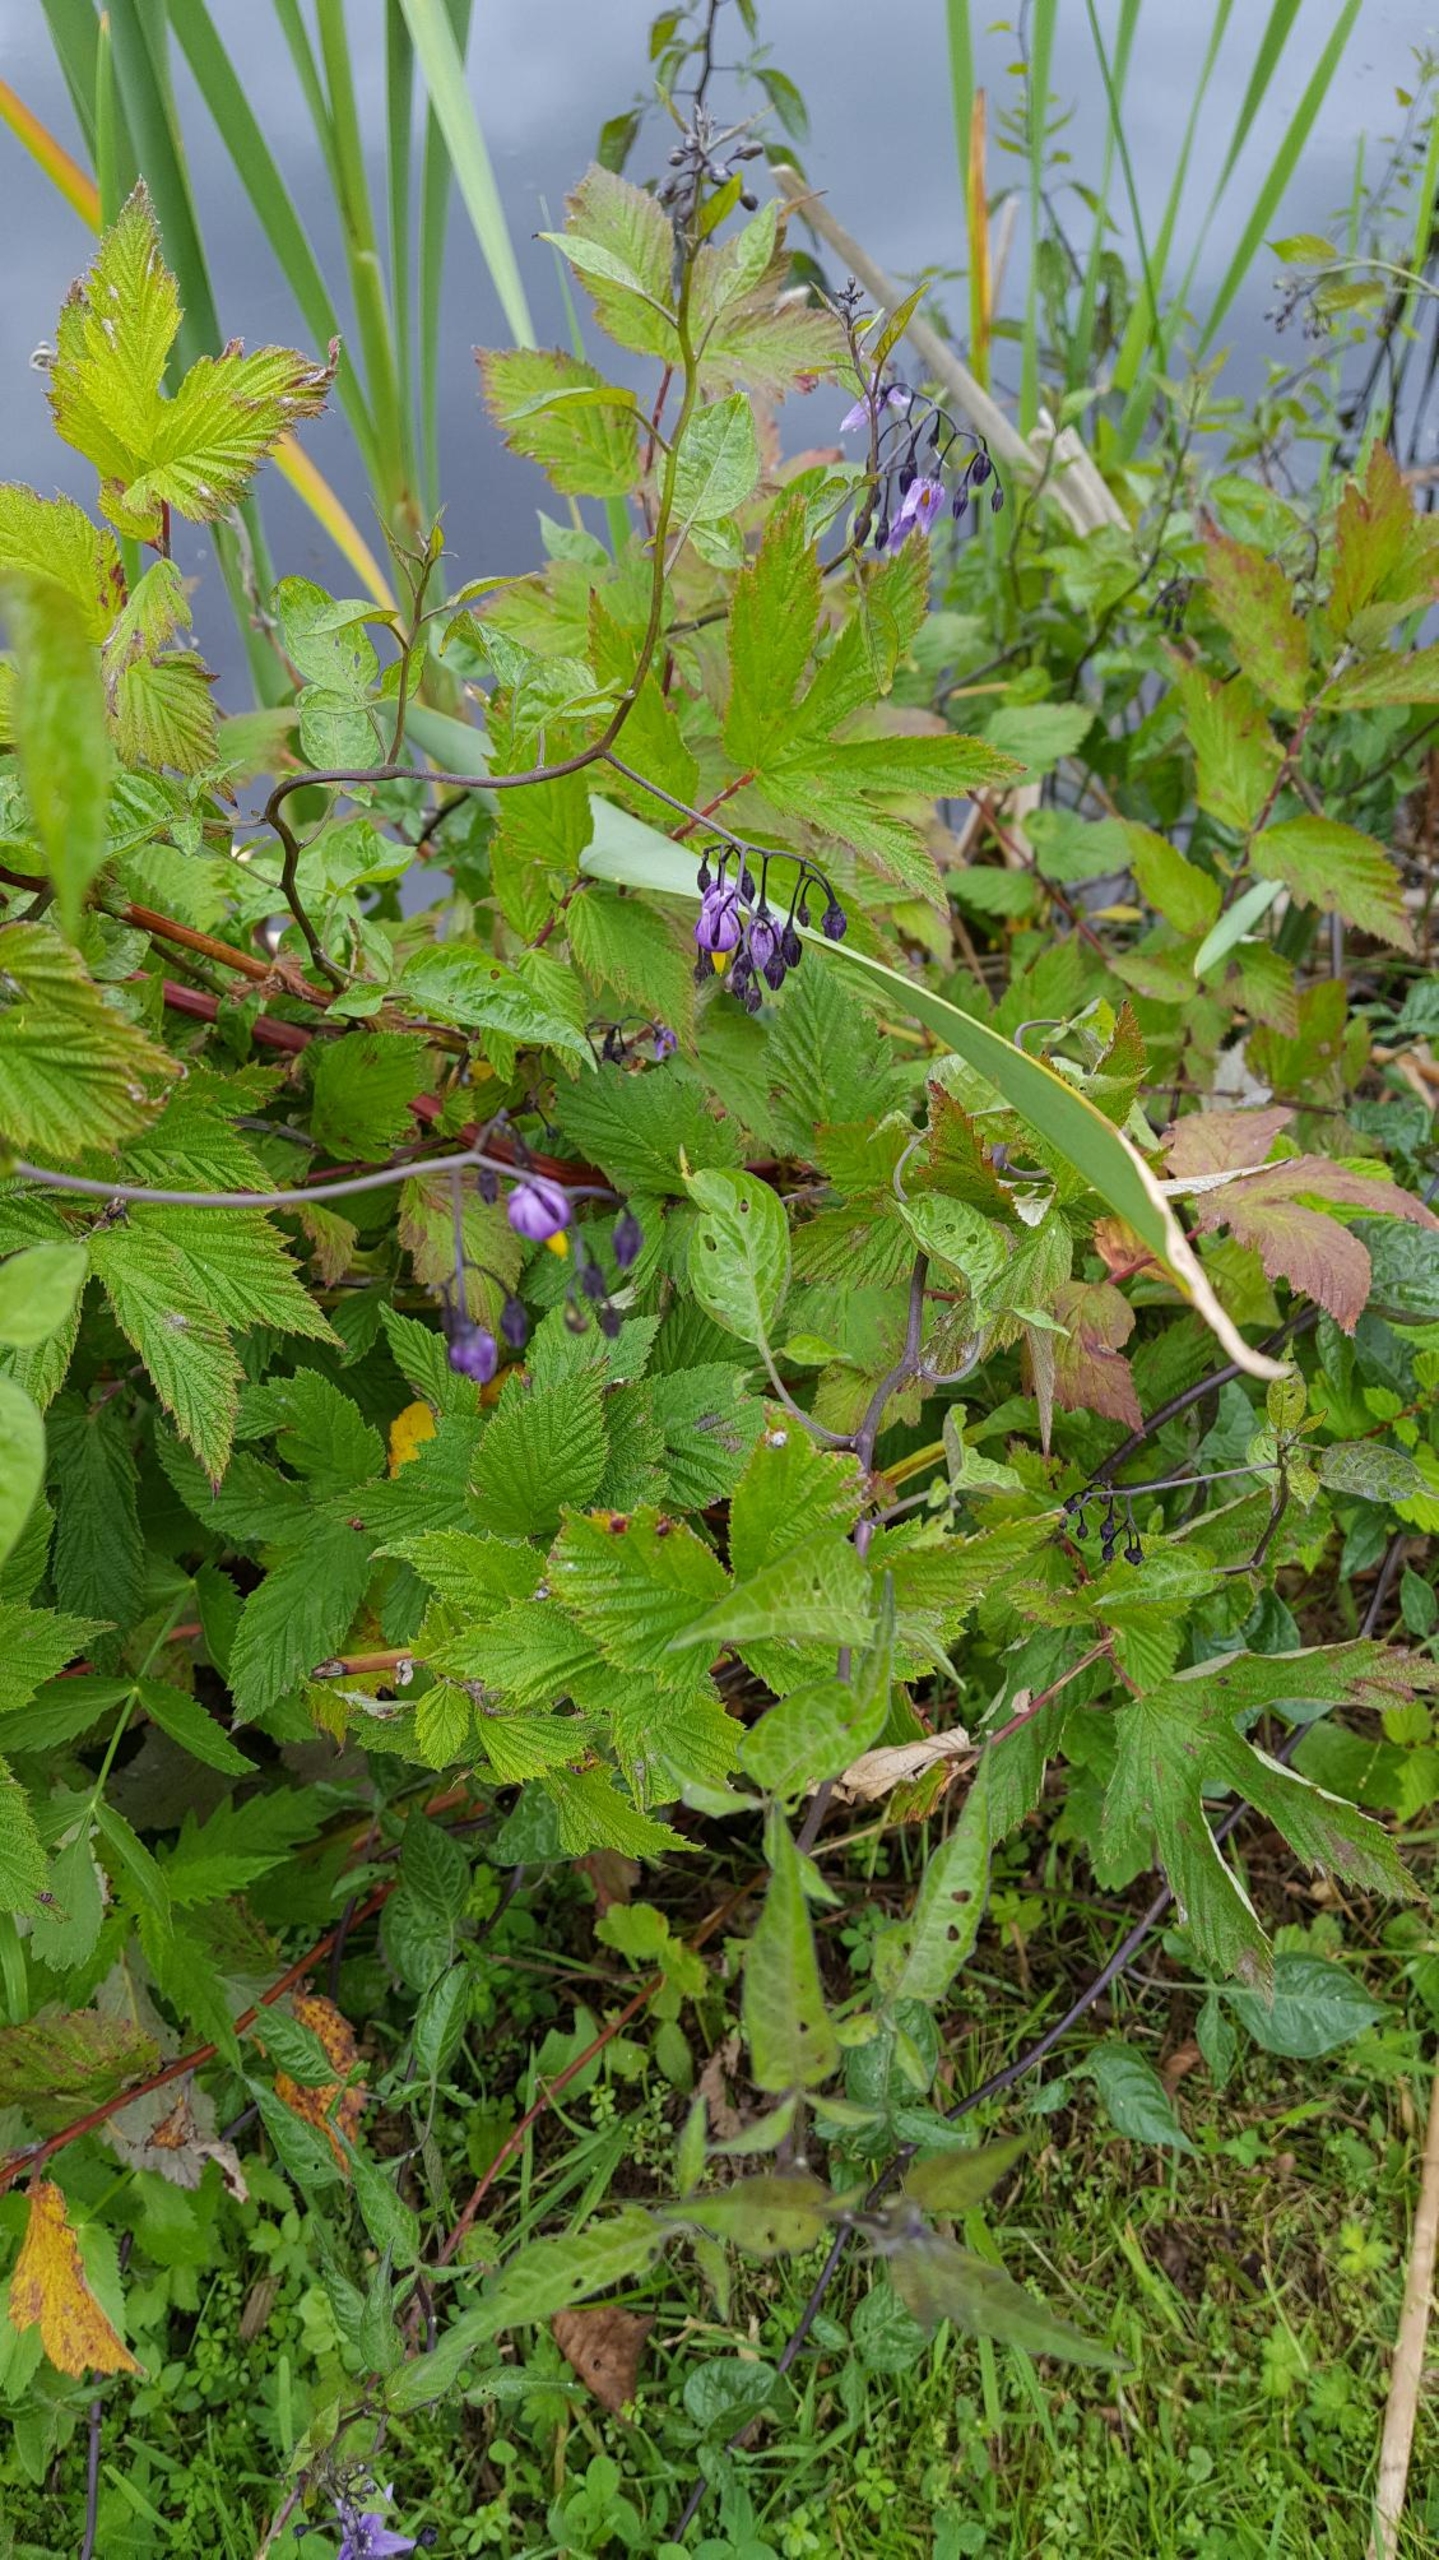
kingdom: Plantae
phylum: Tracheophyta
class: Magnoliopsida
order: Solanales
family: Solanaceae
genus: Solanum
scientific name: Solanum dulcamara
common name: Bittersød natskygge
